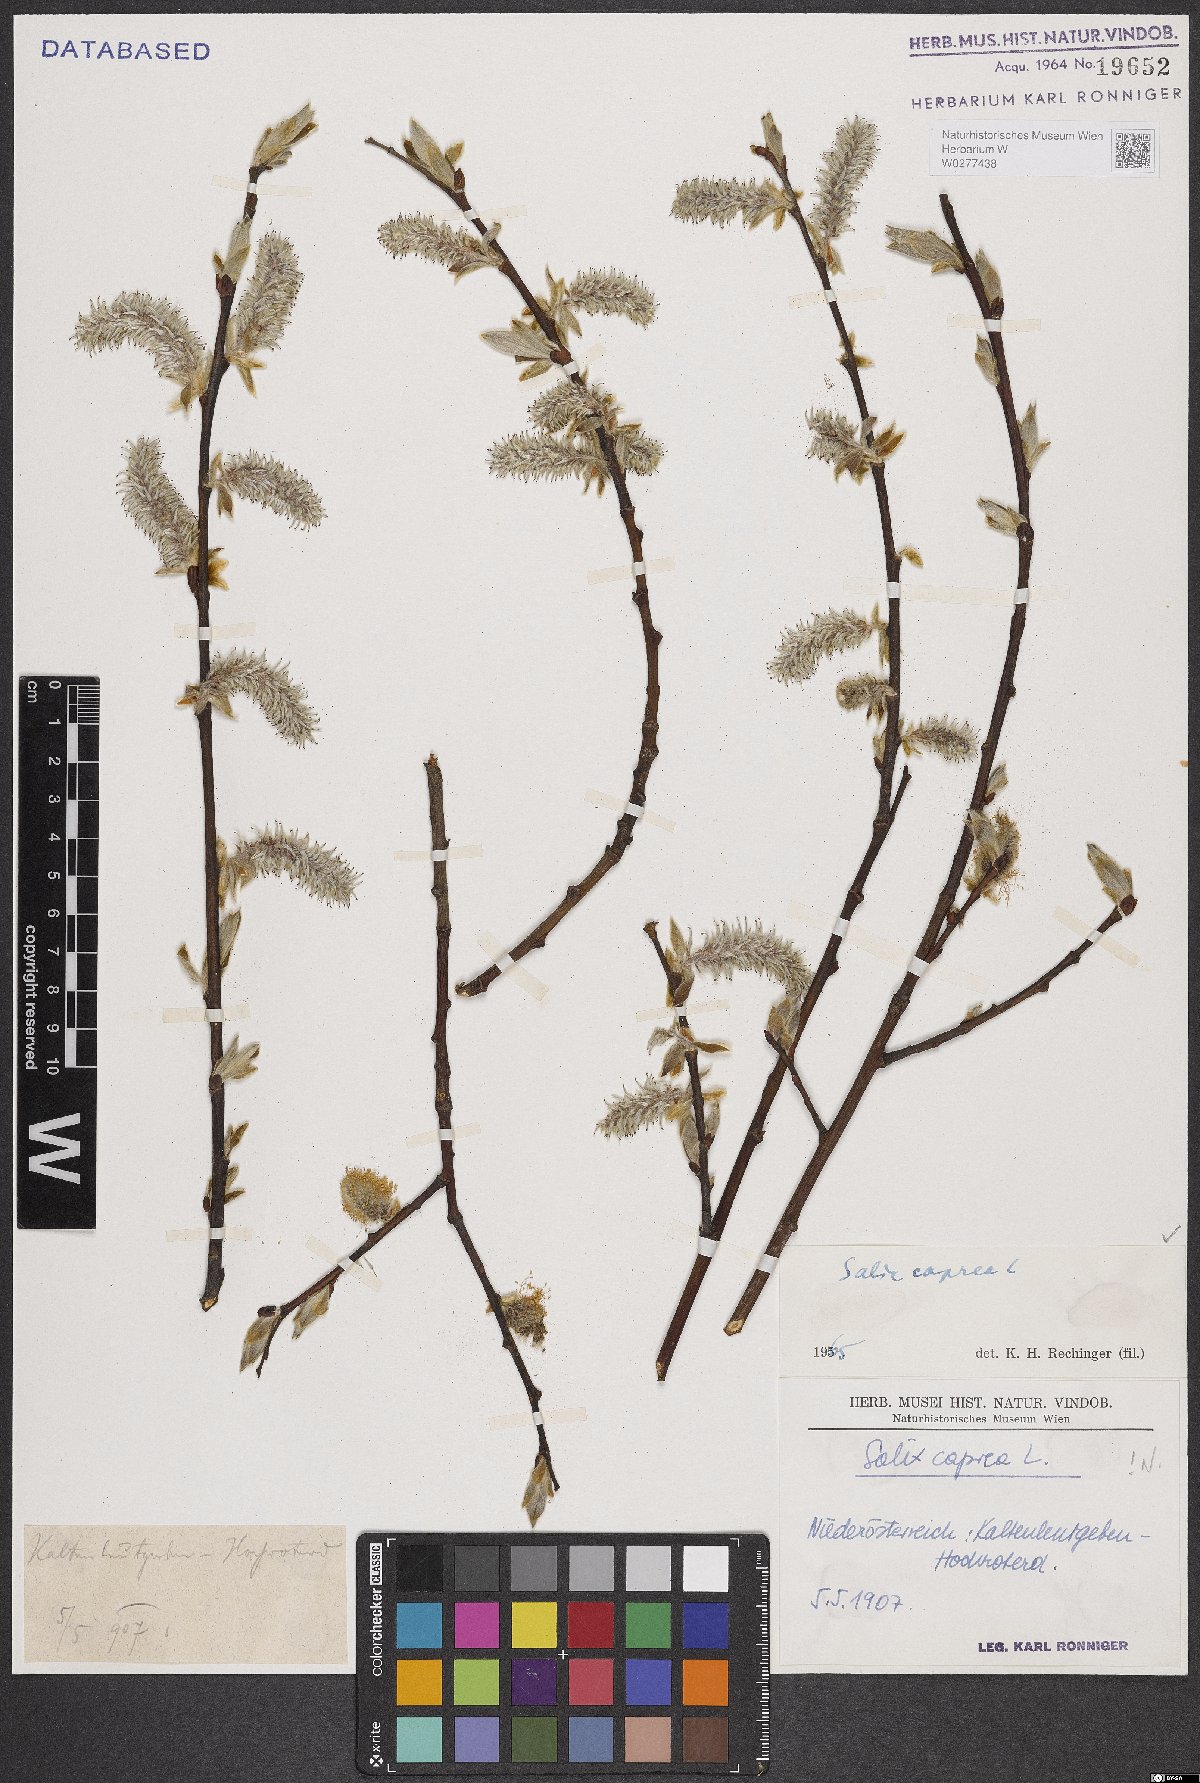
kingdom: Plantae
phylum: Tracheophyta
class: Magnoliopsida
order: Malpighiales
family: Salicaceae
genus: Salix
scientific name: Salix caprea
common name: Goat willow
